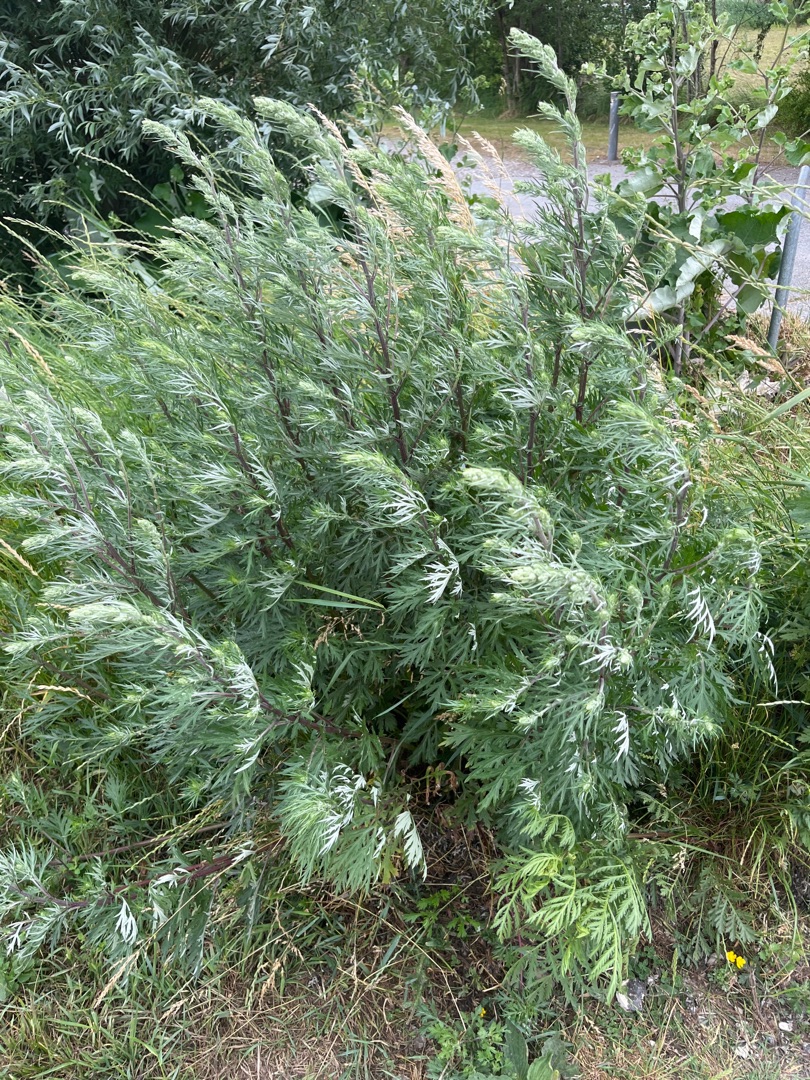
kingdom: Plantae
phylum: Tracheophyta
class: Magnoliopsida
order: Asterales
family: Asteraceae
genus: Artemisia
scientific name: Artemisia vulgaris
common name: Grå-bynke
